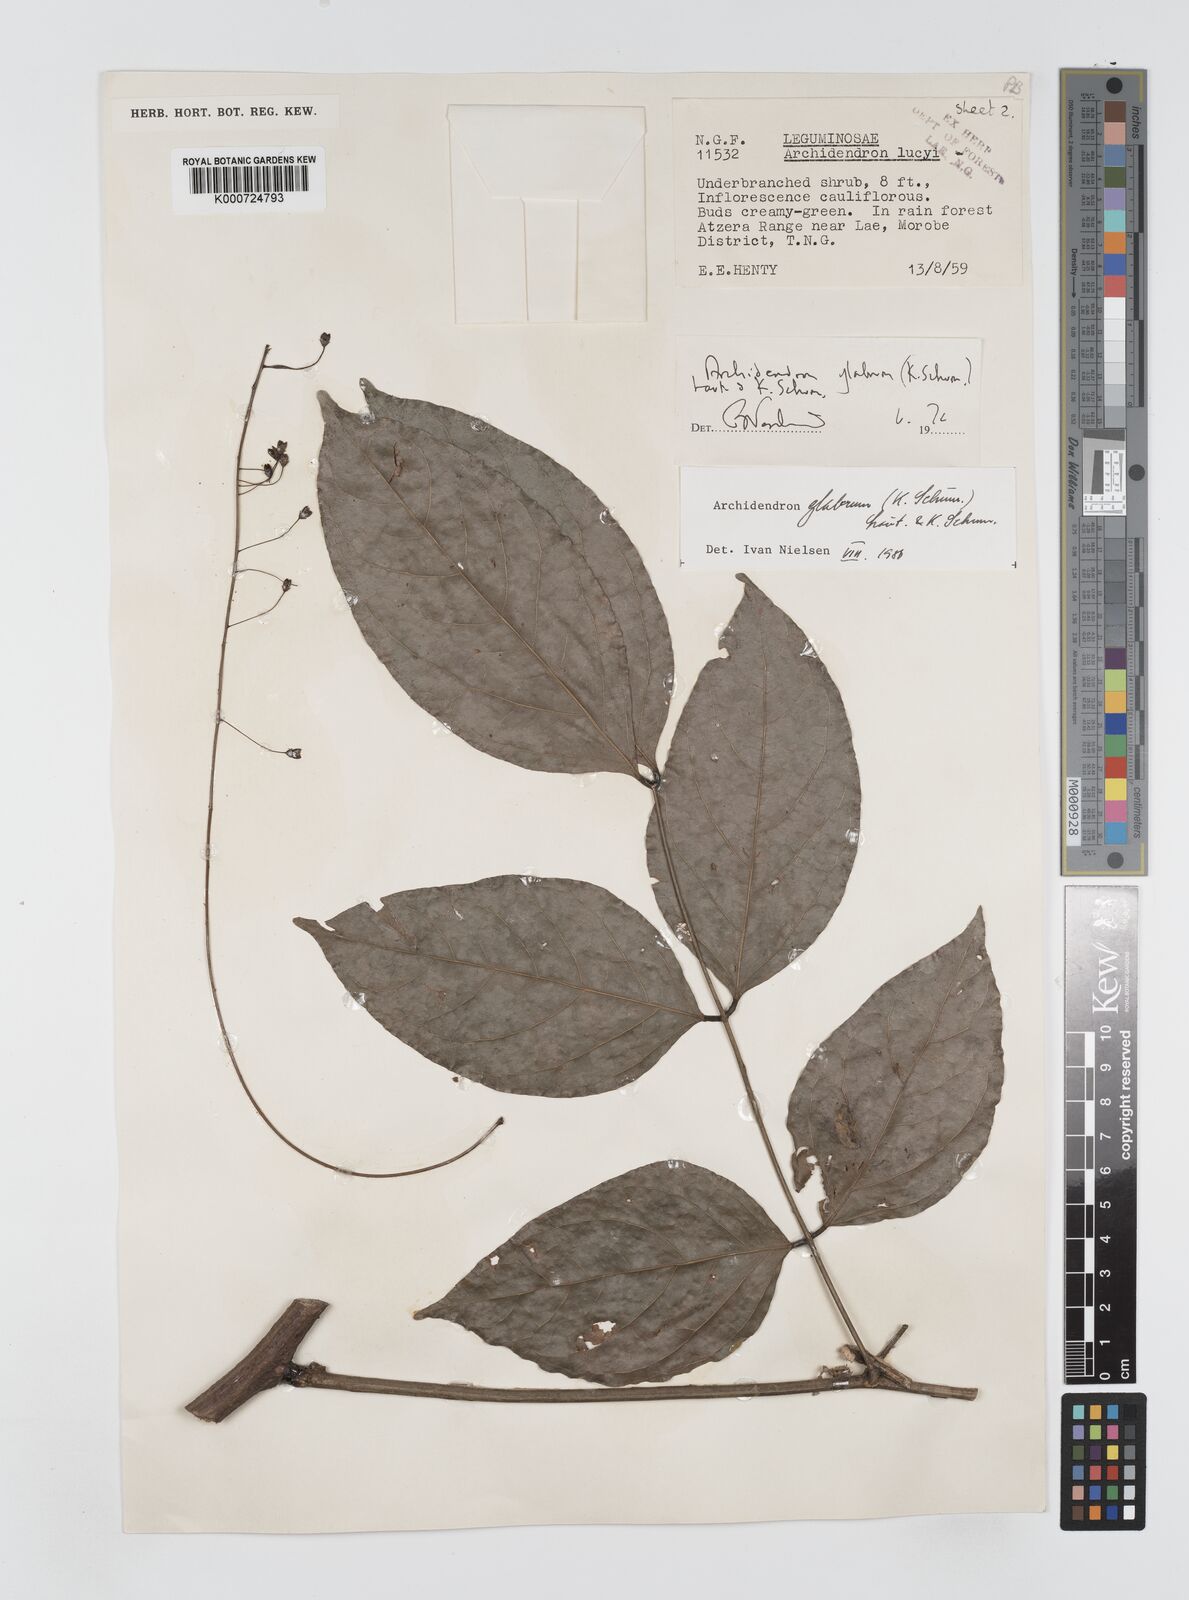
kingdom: Plantae
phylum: Tracheophyta
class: Magnoliopsida
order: Fabales
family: Fabaceae
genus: Archidendron
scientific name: Archidendron glabrum
